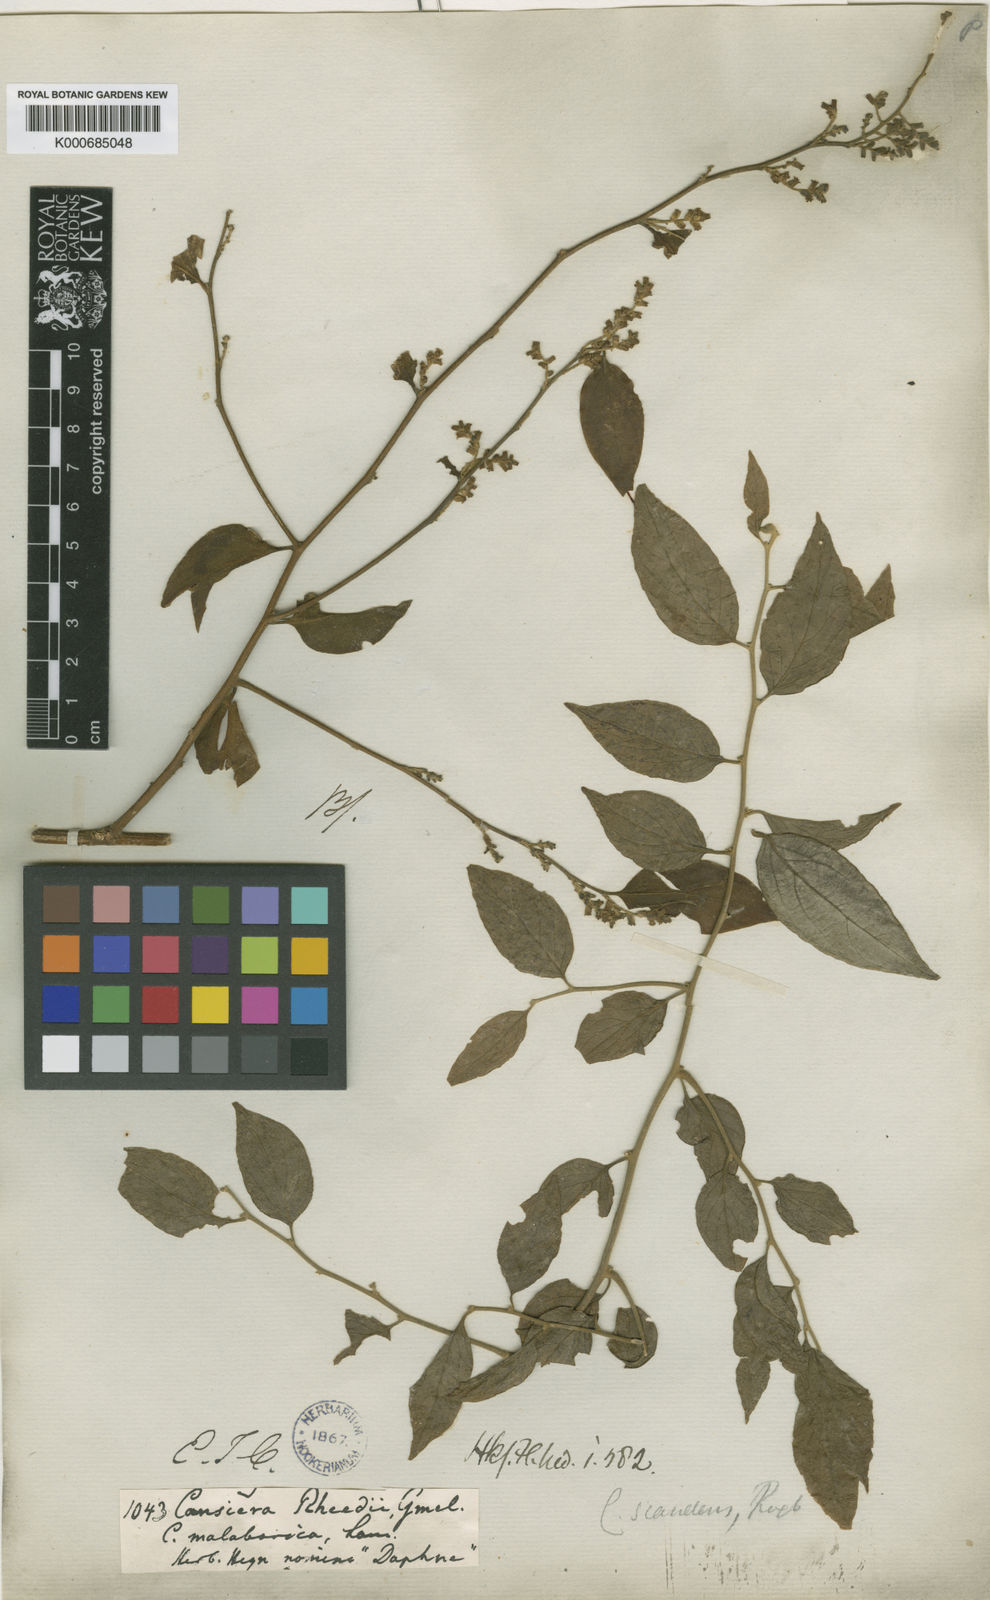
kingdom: Plantae
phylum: Tracheophyta
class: Magnoliopsida
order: Santalales
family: Opiliaceae
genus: Cansjera
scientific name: Cansjera rheedei
